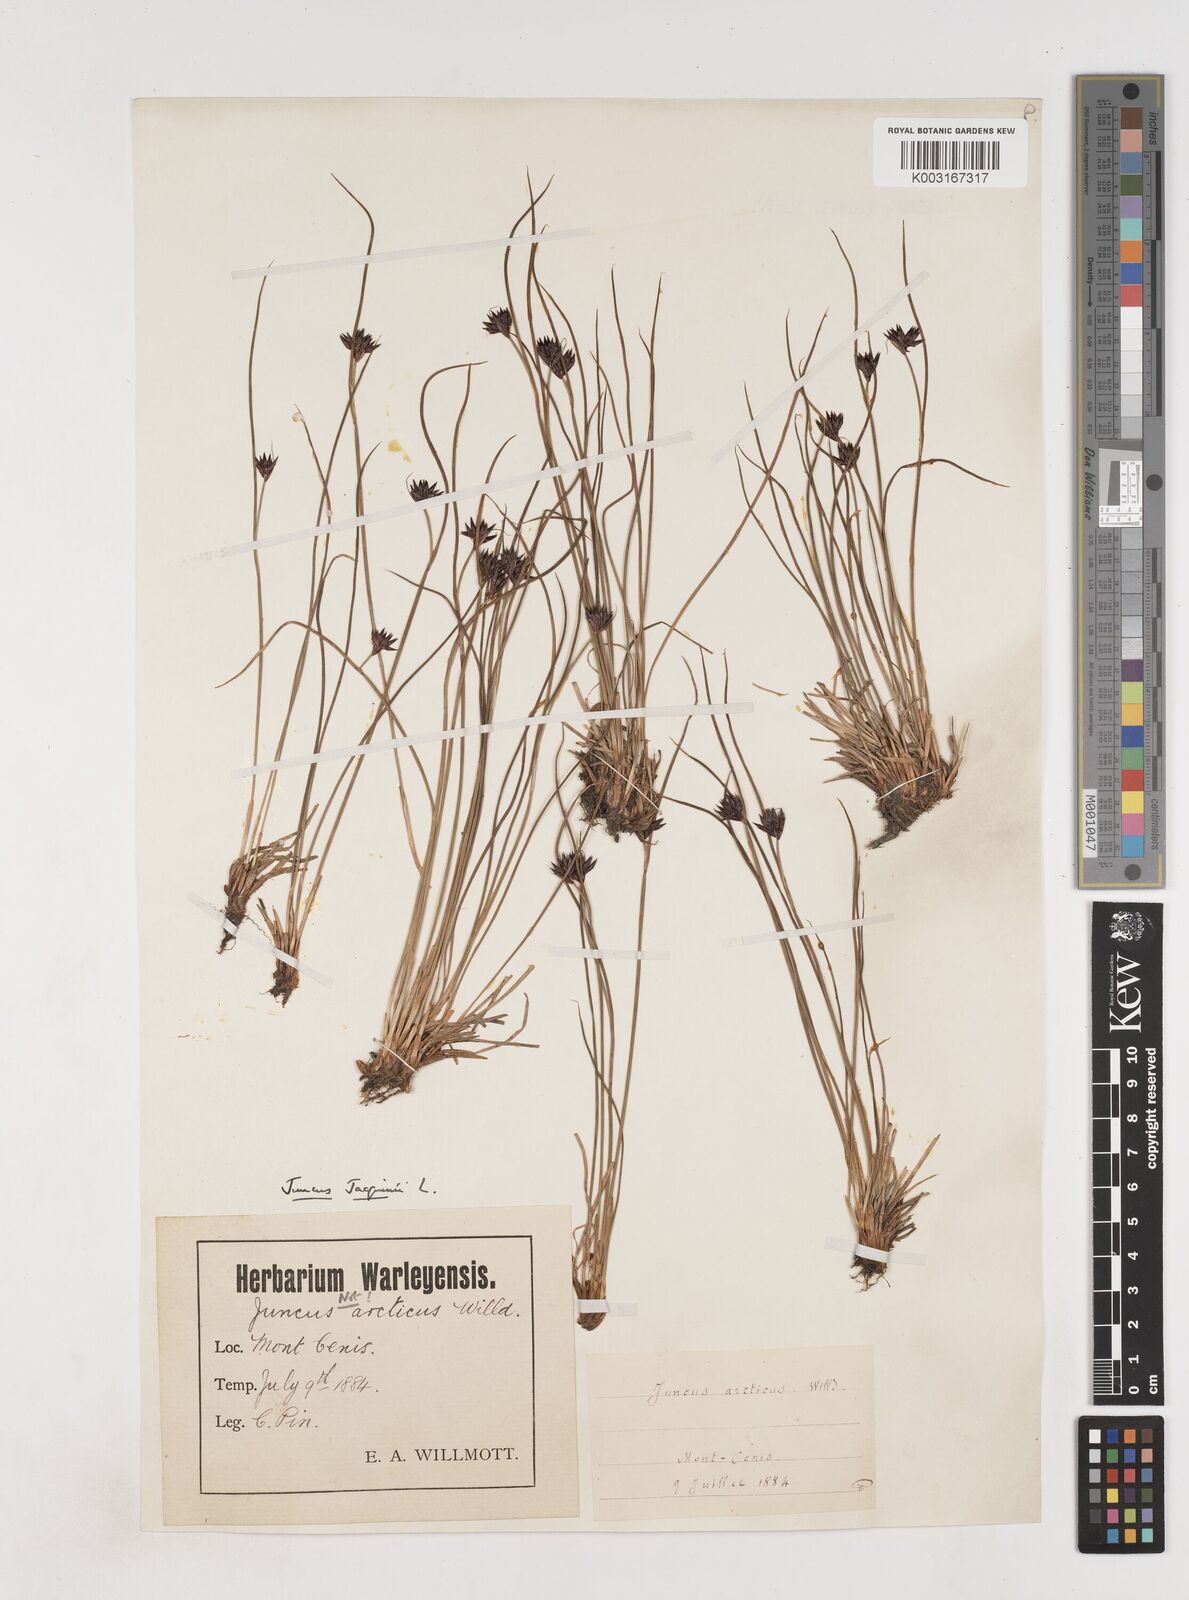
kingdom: Plantae
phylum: Tracheophyta
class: Liliopsida
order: Poales
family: Juncaceae
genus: Juncus
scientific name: Juncus jacquinii
